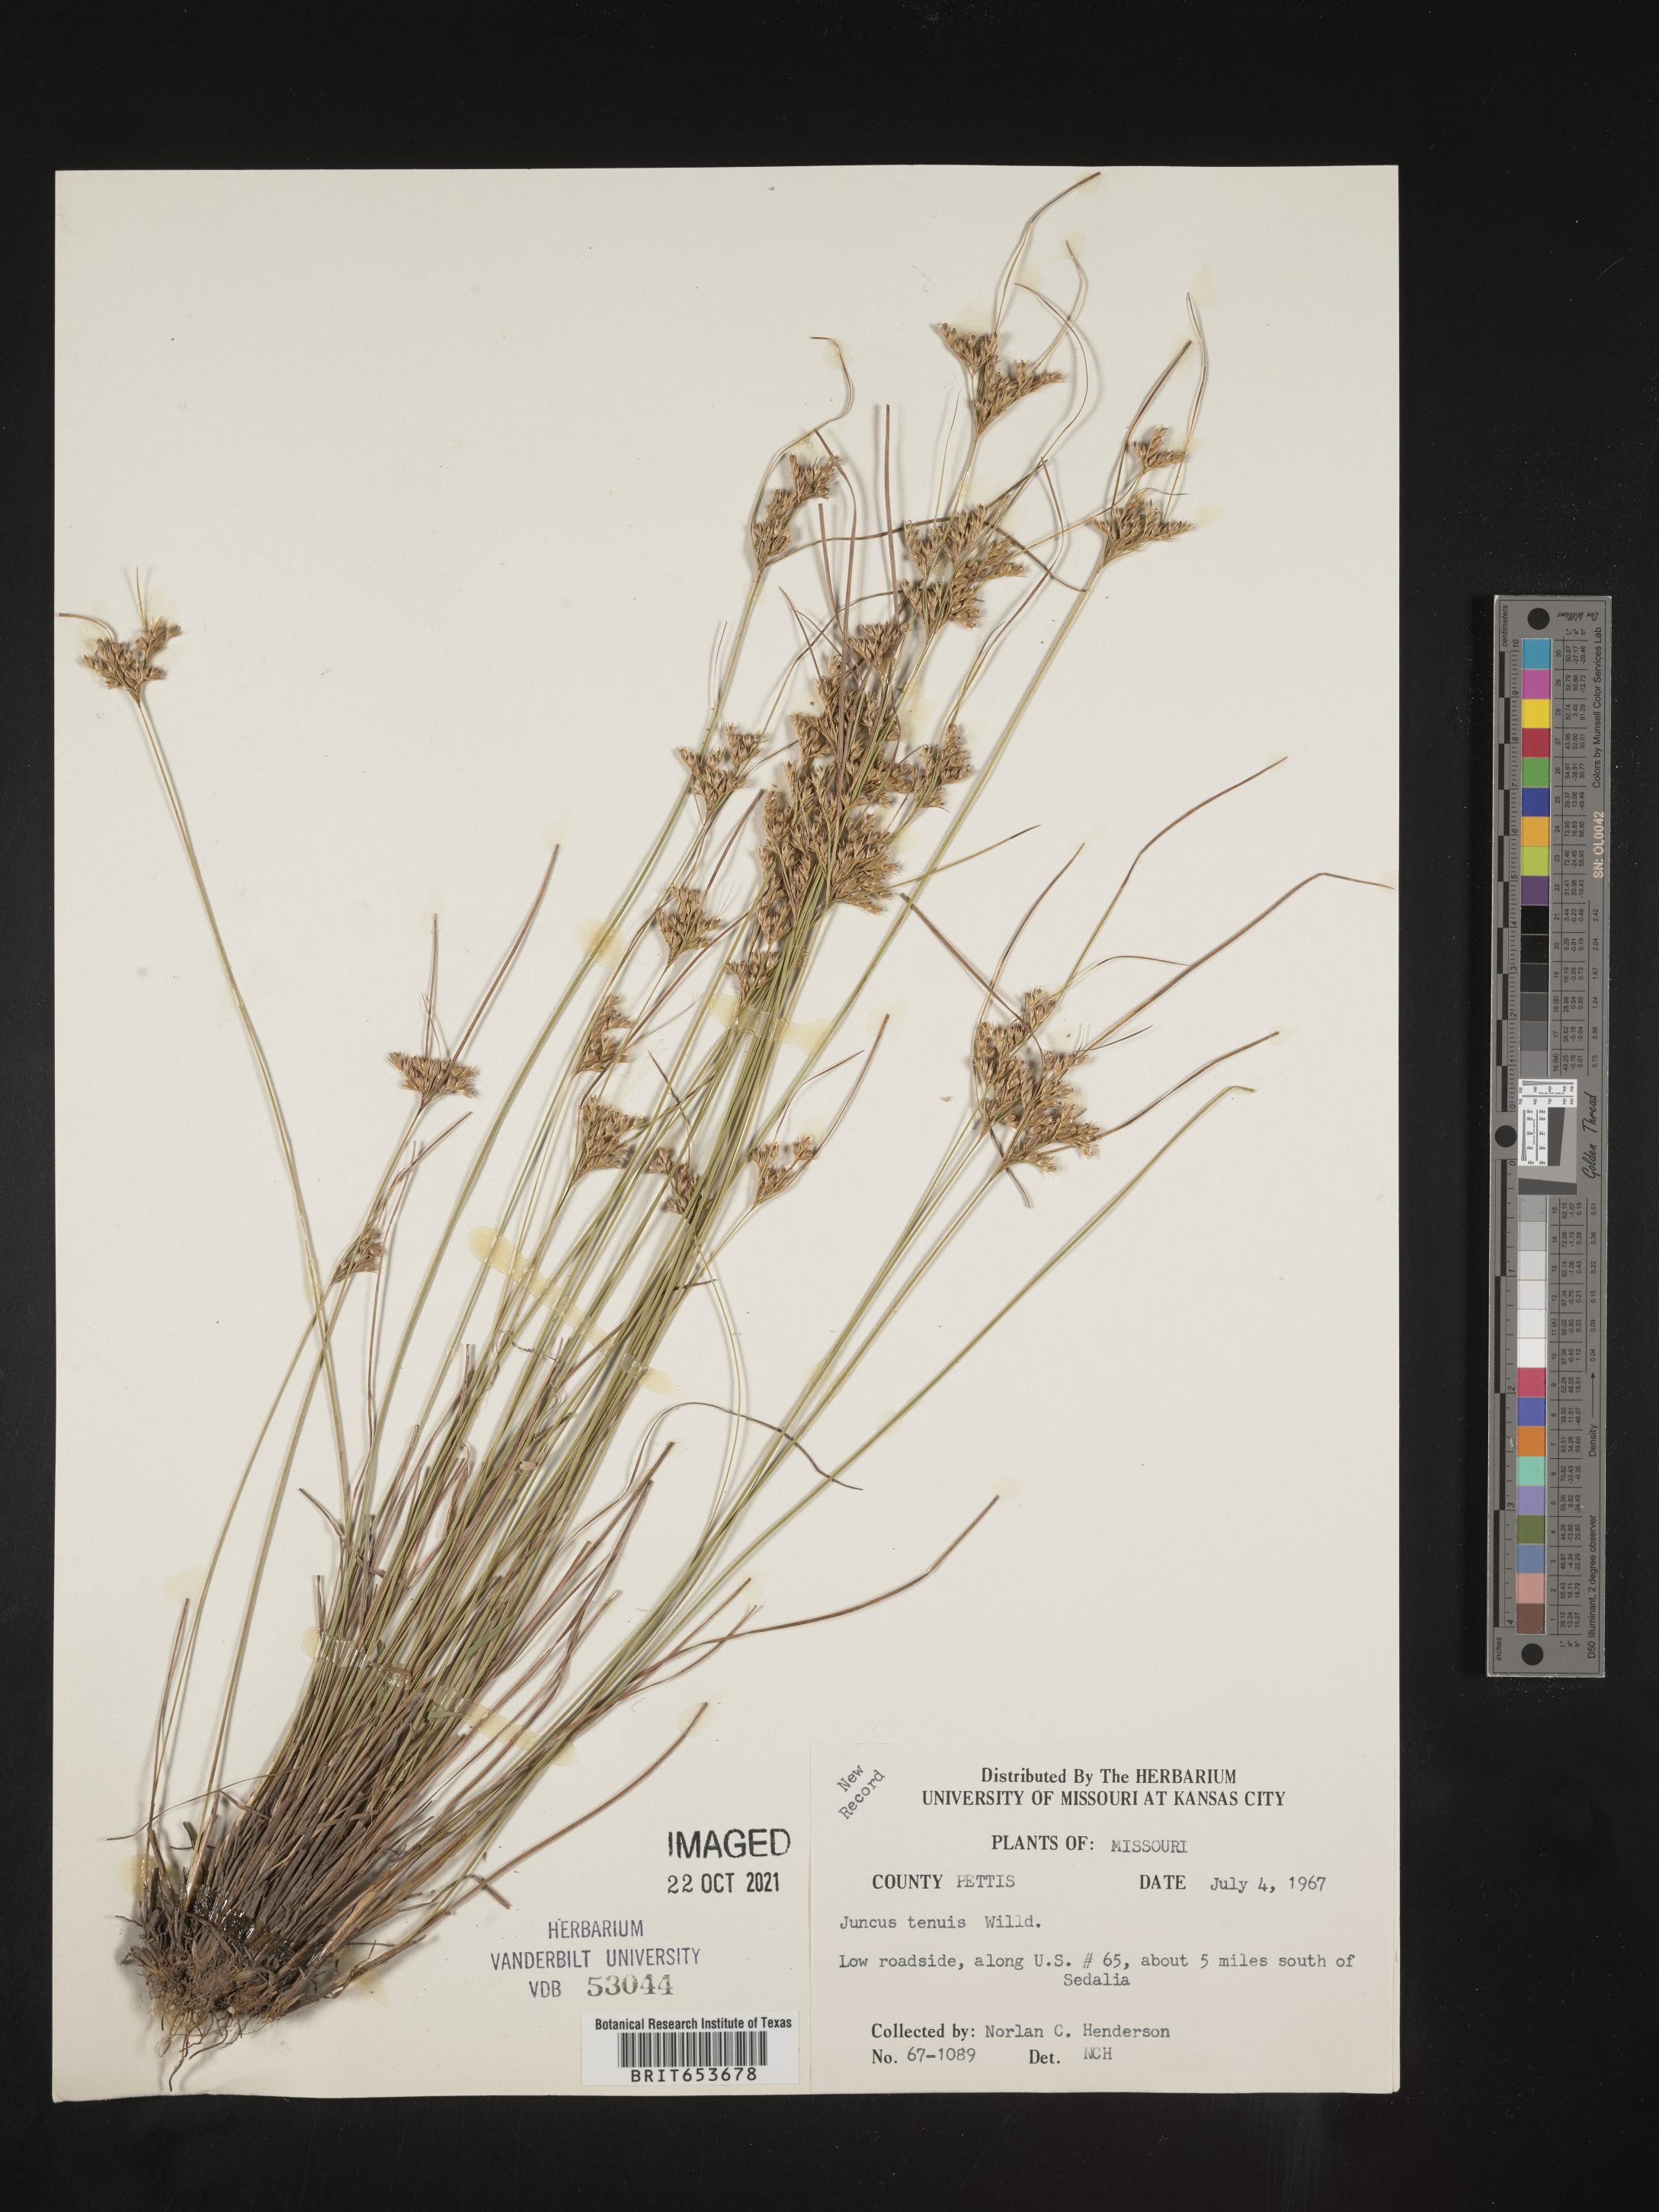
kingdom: Plantae
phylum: Tracheophyta
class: Liliopsida
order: Poales
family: Juncaceae
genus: Juncus
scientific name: Juncus tenuis
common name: Slender rush
